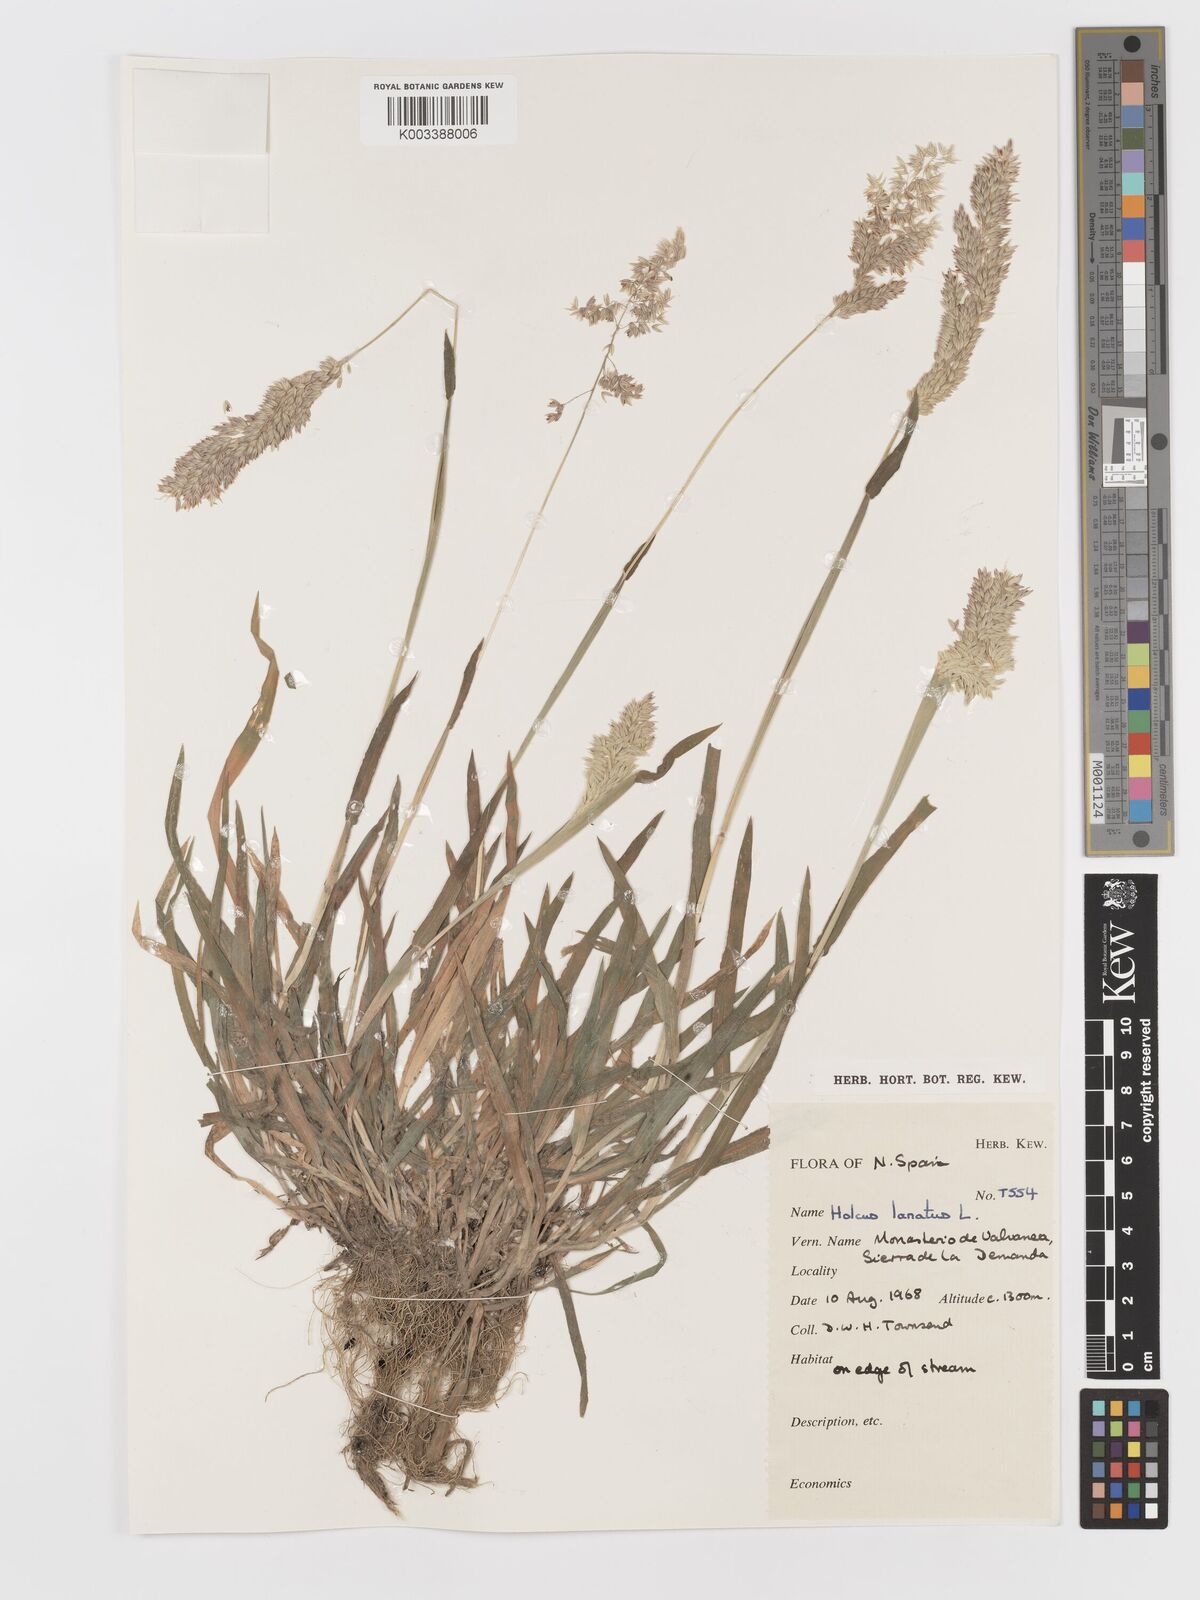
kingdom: Plantae
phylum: Tracheophyta
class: Liliopsida
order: Poales
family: Poaceae
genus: Holcus
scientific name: Holcus lanatus
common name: Yorkshire-fog
